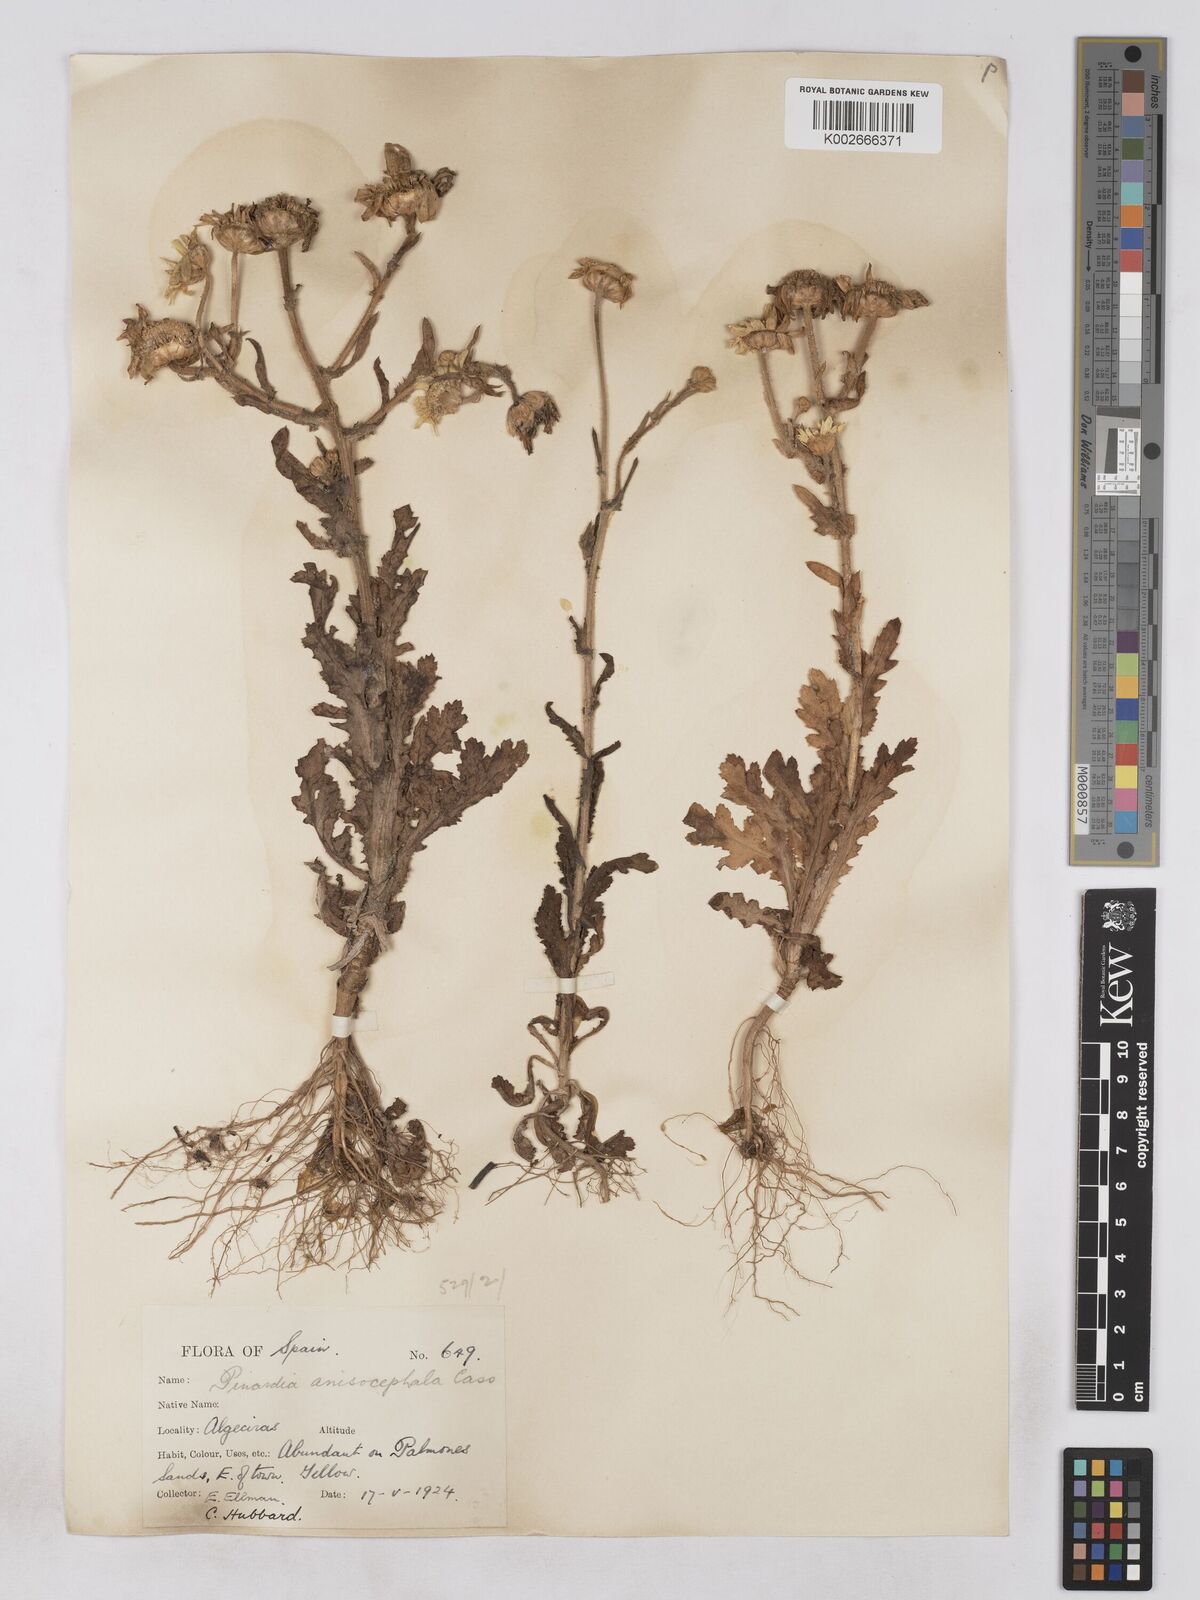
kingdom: Plantae
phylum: Tracheophyta
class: Magnoliopsida
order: Asterales
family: Asteraceae
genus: Heteranthemis
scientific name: Heteranthemis
